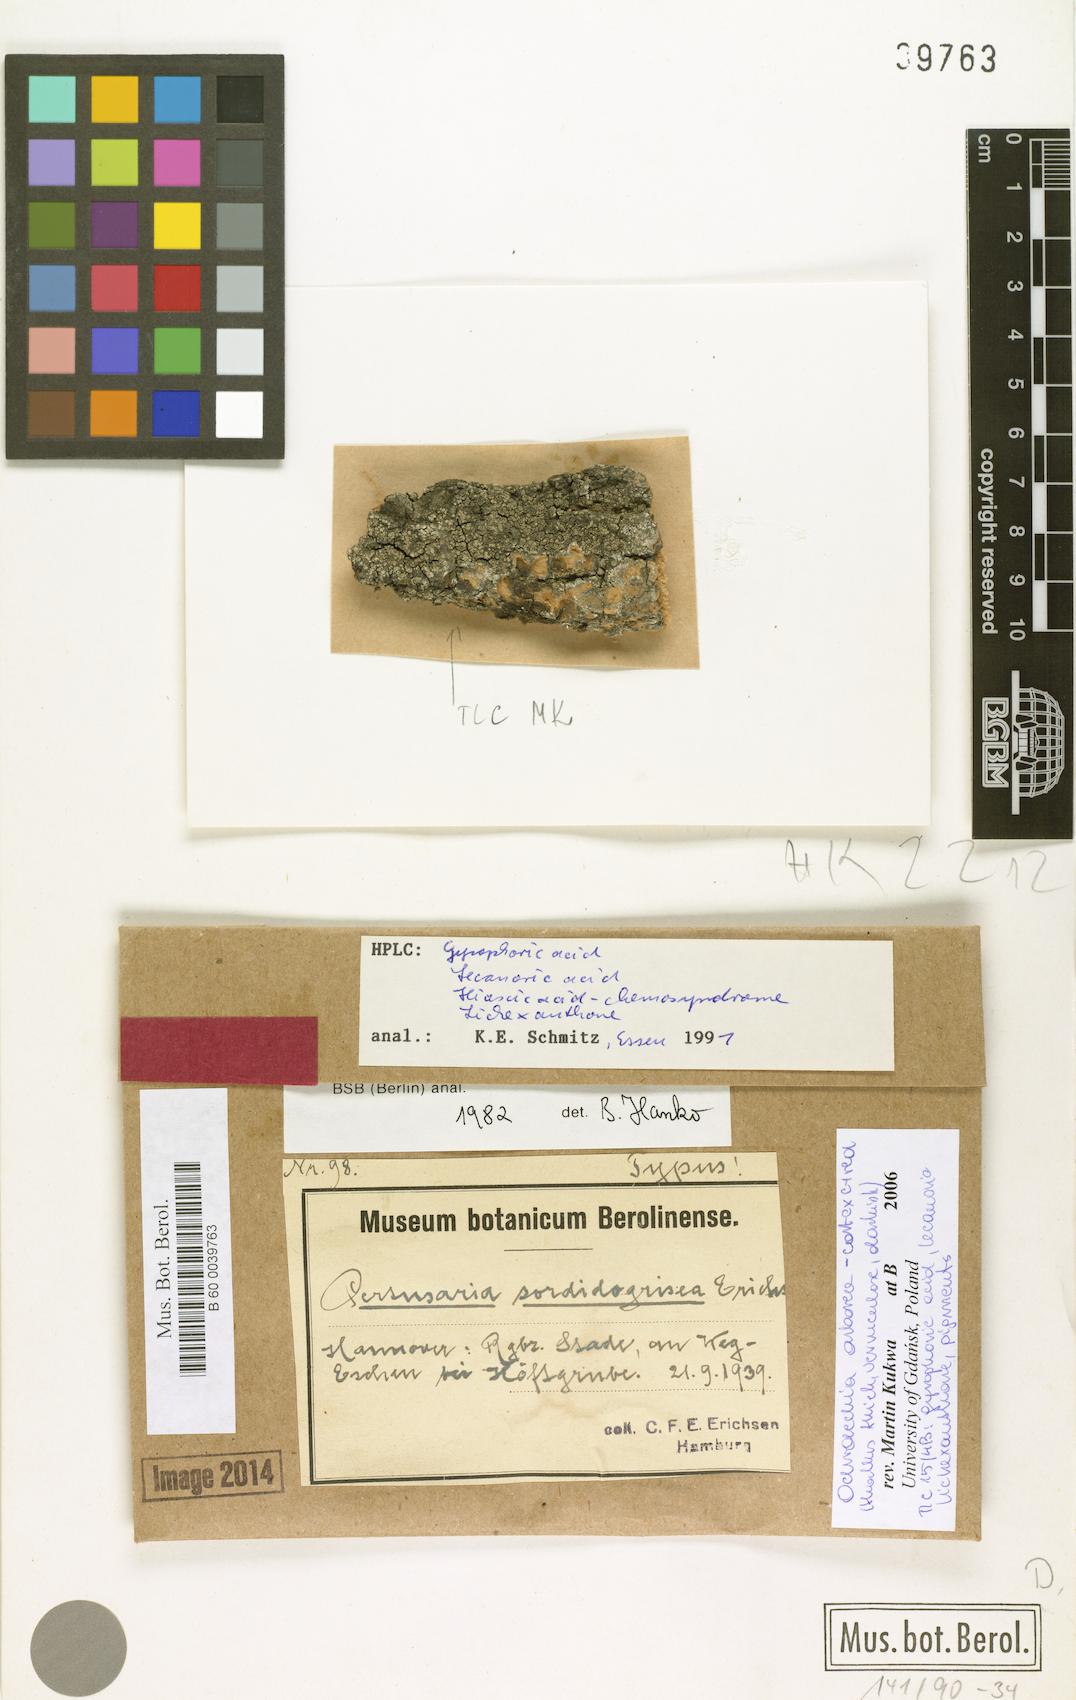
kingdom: Fungi
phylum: Ascomycota
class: Lecanoromycetes
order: Pertusariales
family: Ochrolechiaceae
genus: Ochrolechia
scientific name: Ochrolechia arborea
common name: Tree saucer lichen
